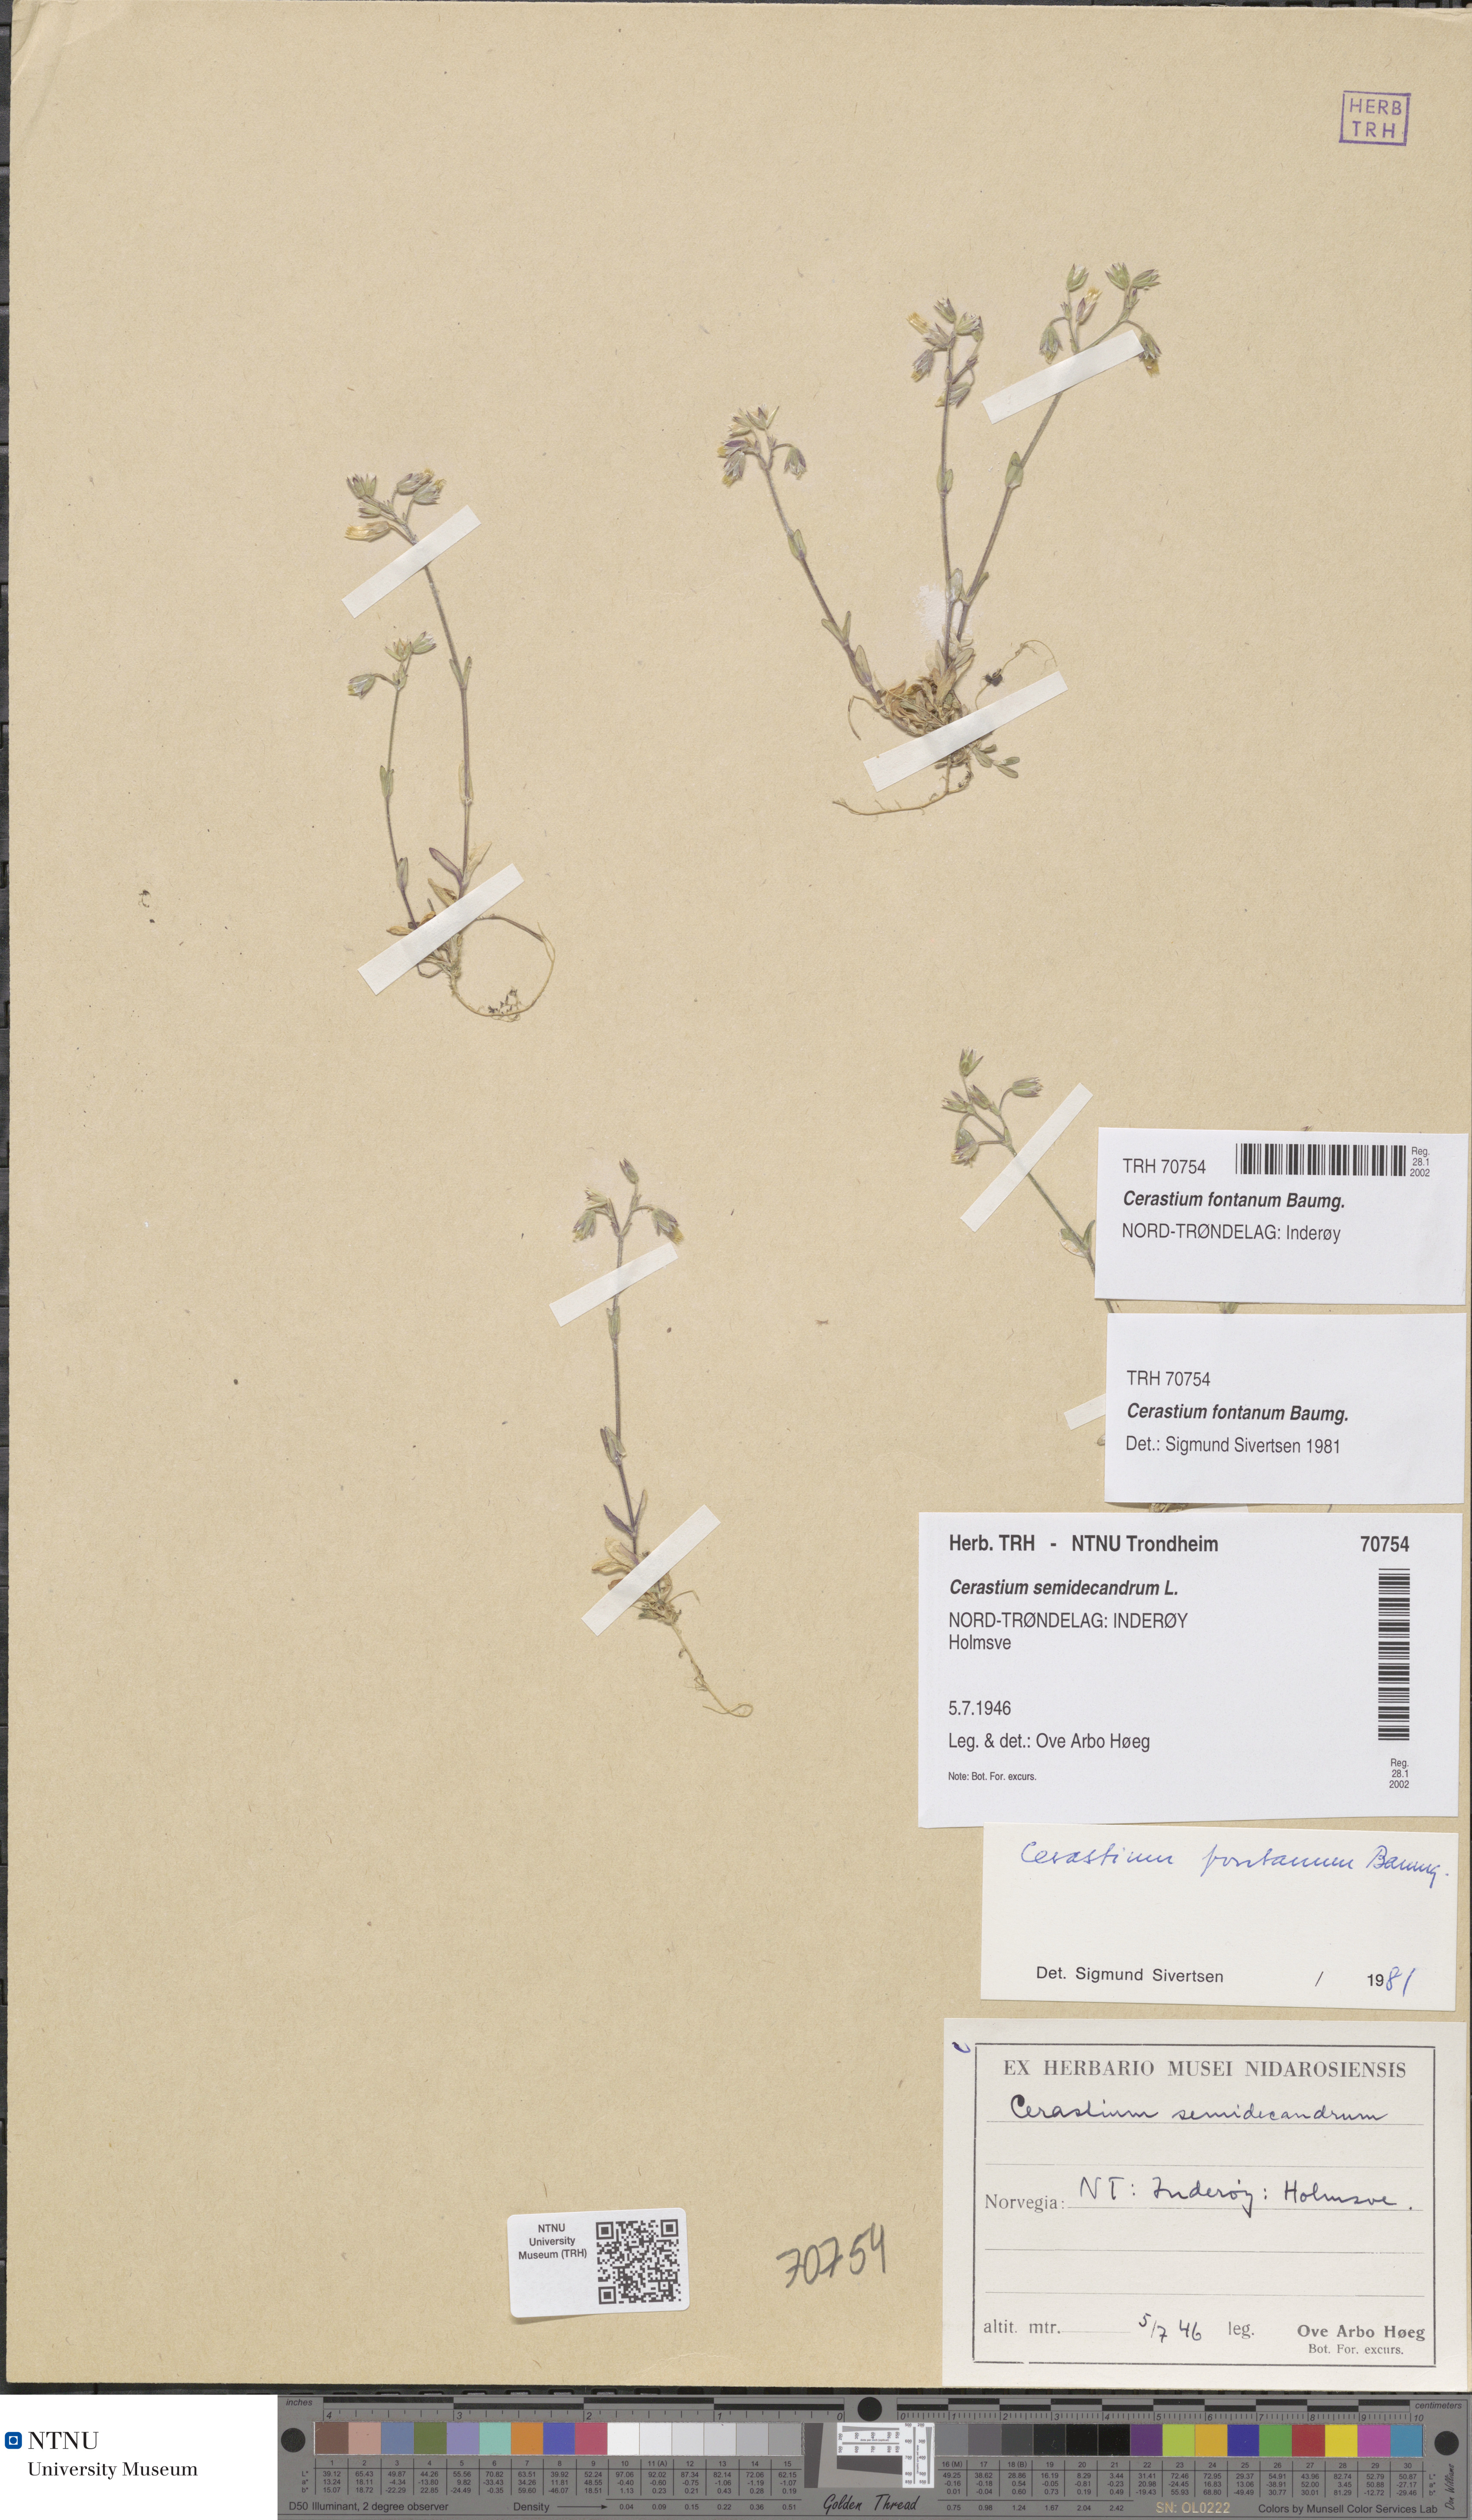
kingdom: Plantae
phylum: Tracheophyta
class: Magnoliopsida
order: Caryophyllales
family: Caryophyllaceae
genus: Cerastium
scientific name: Cerastium fontanum
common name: Common mouse-ear
